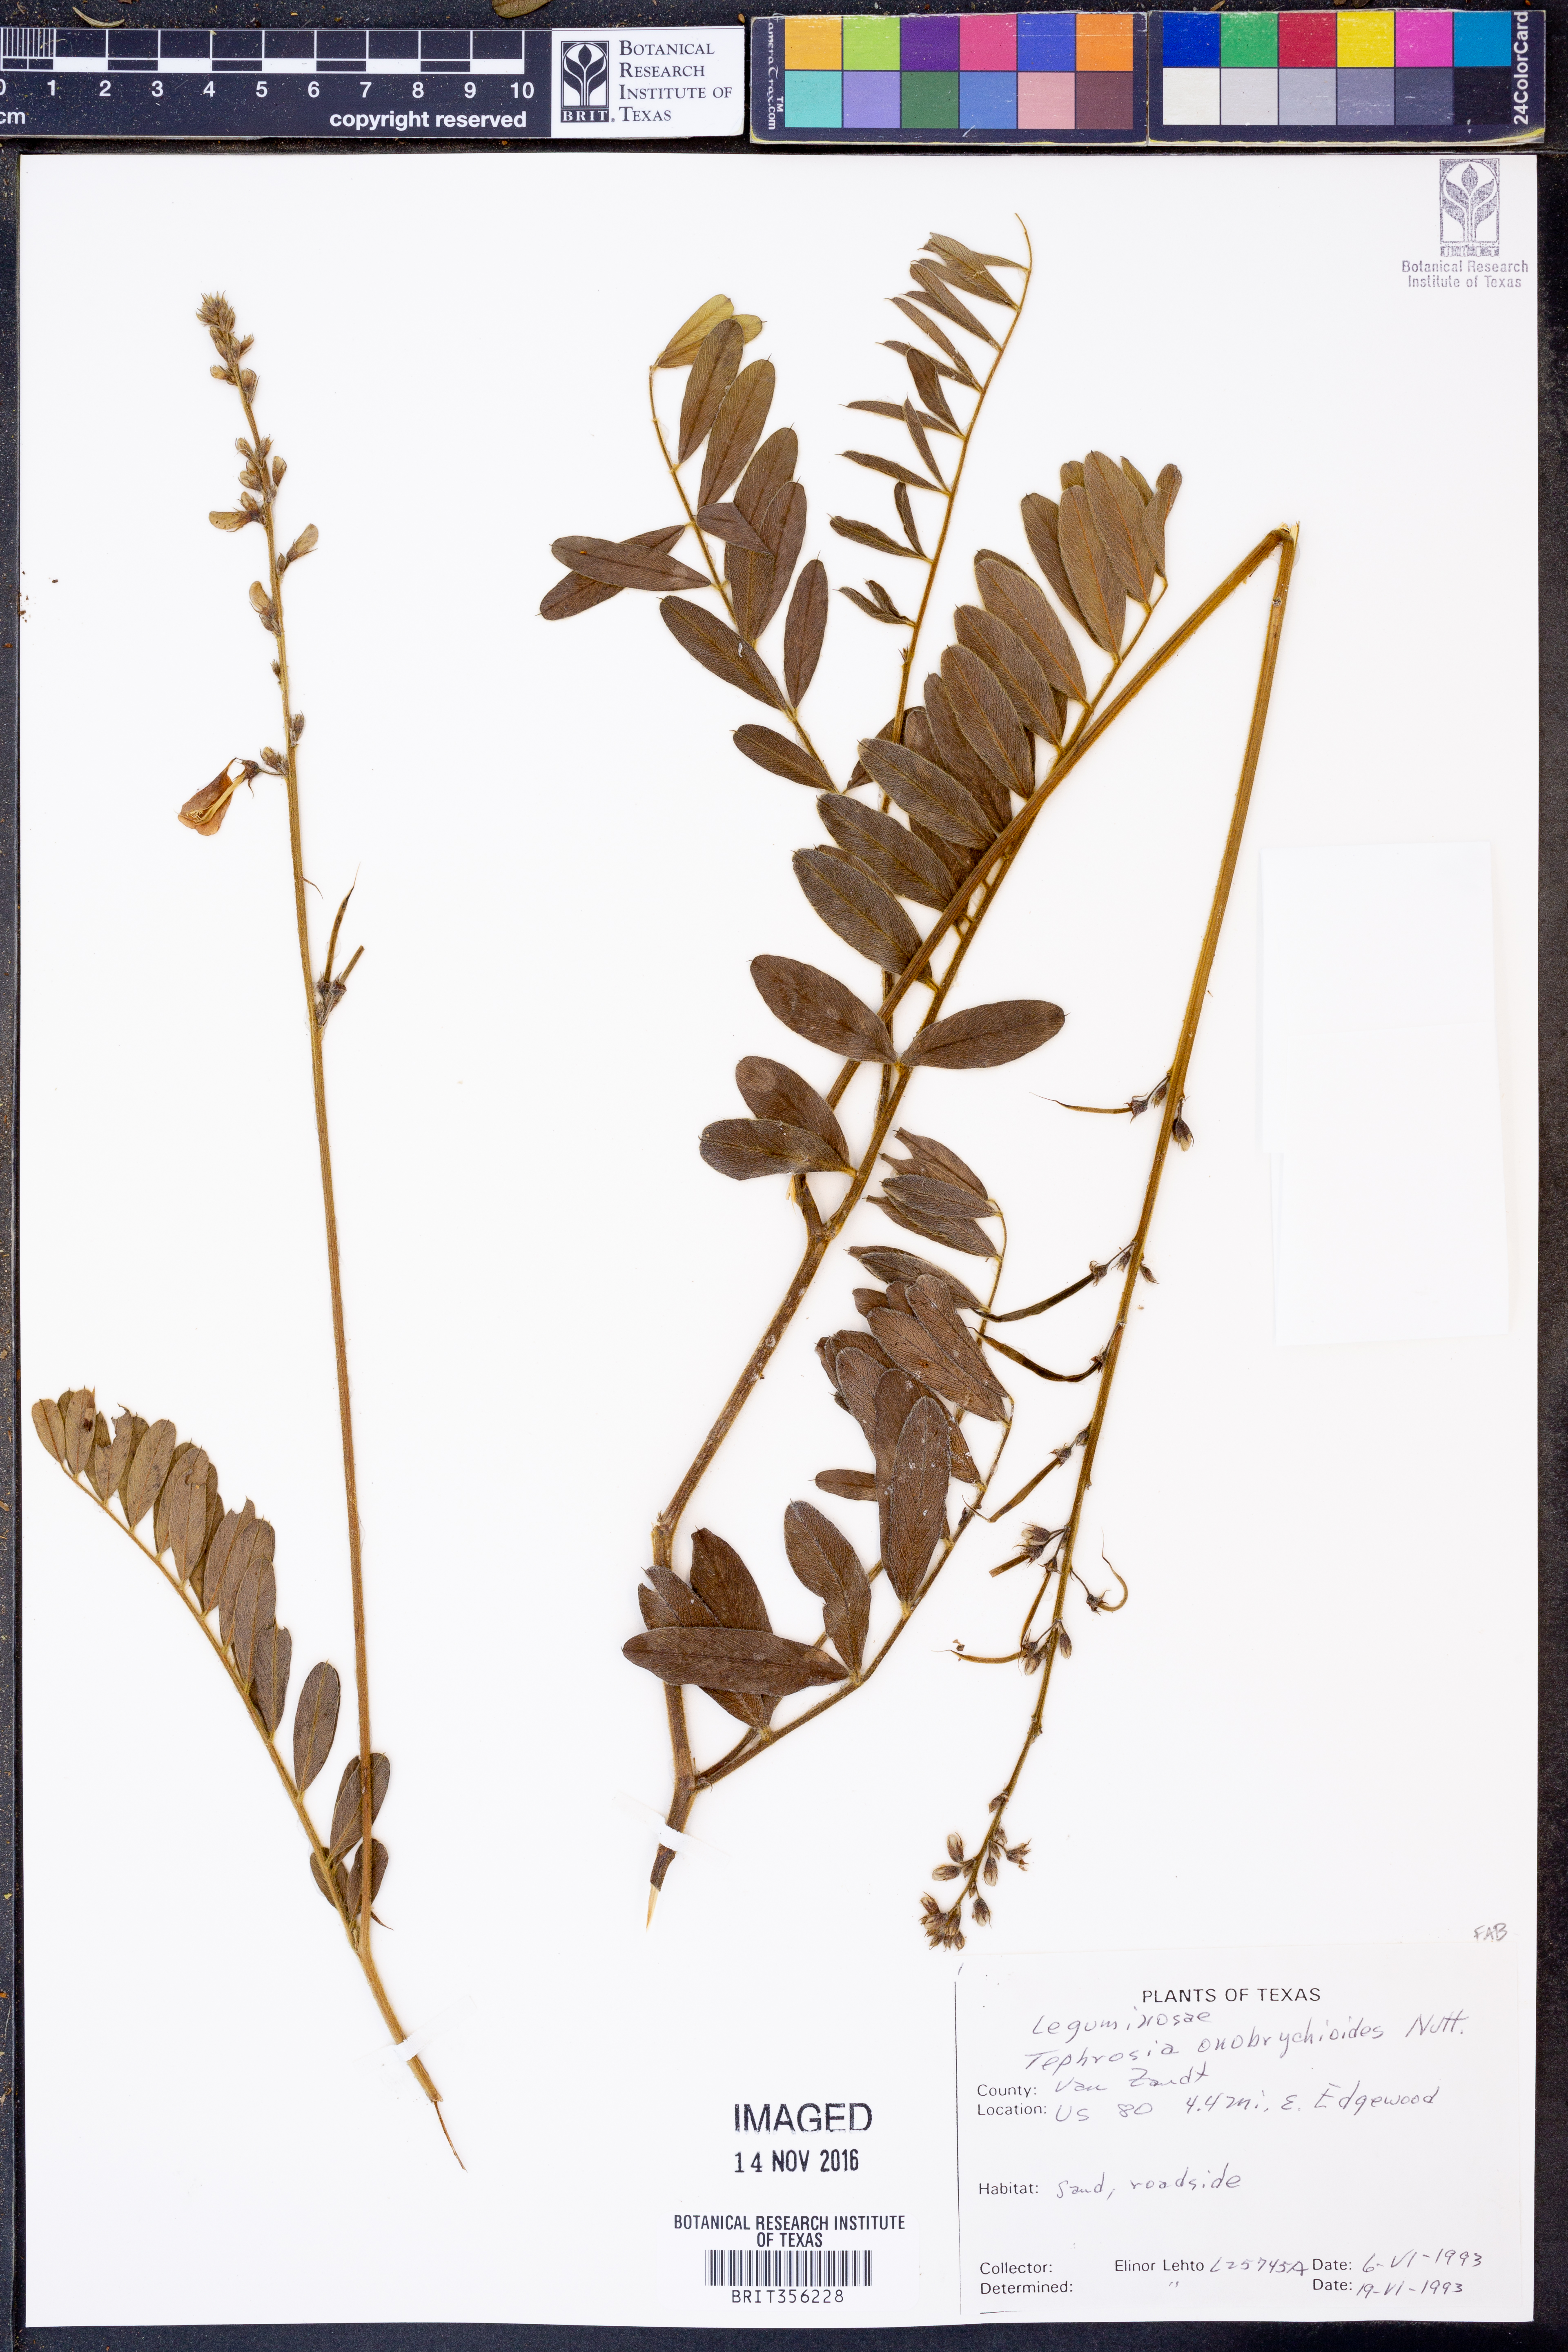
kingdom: Plantae
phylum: Tracheophyta
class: Magnoliopsida
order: Fabales
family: Fabaceae
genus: Tephrosia
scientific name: Tephrosia onobrychoides
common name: Multi-bloom hoary-pea
